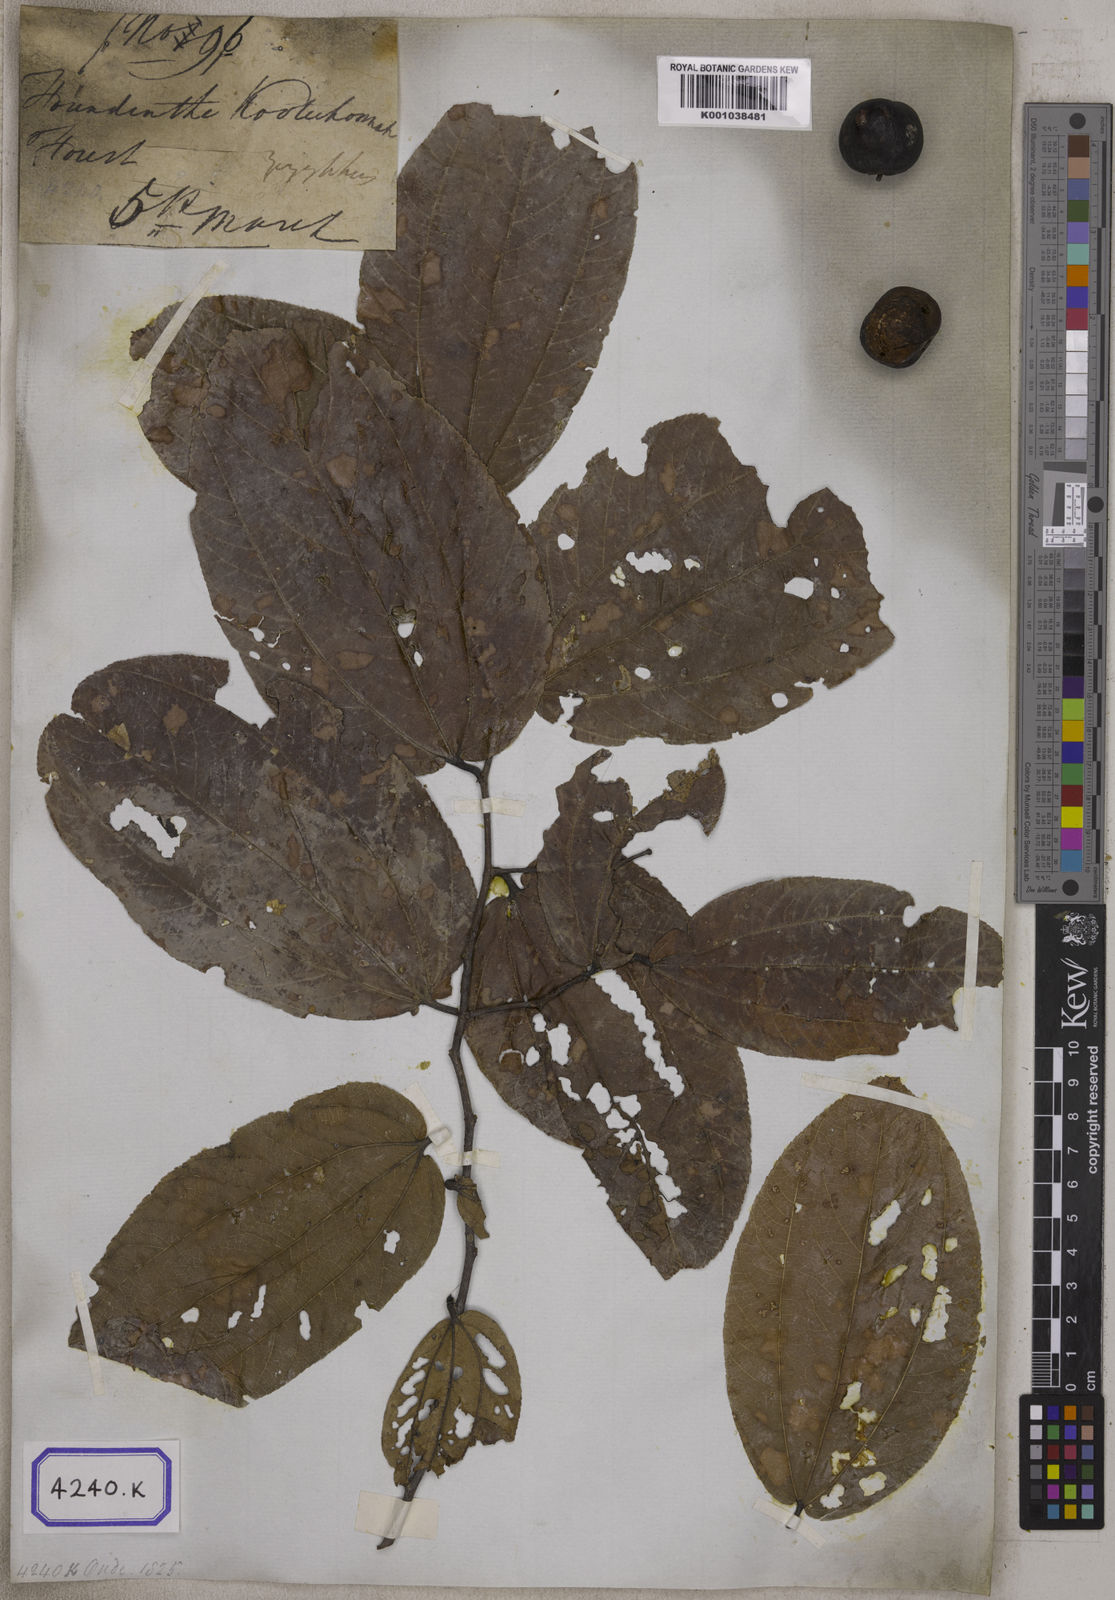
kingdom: Plantae
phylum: Tracheophyta
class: Magnoliopsida
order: Rosales
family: Rhamnaceae
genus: Ziziphus
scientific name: Ziziphus rugosa
